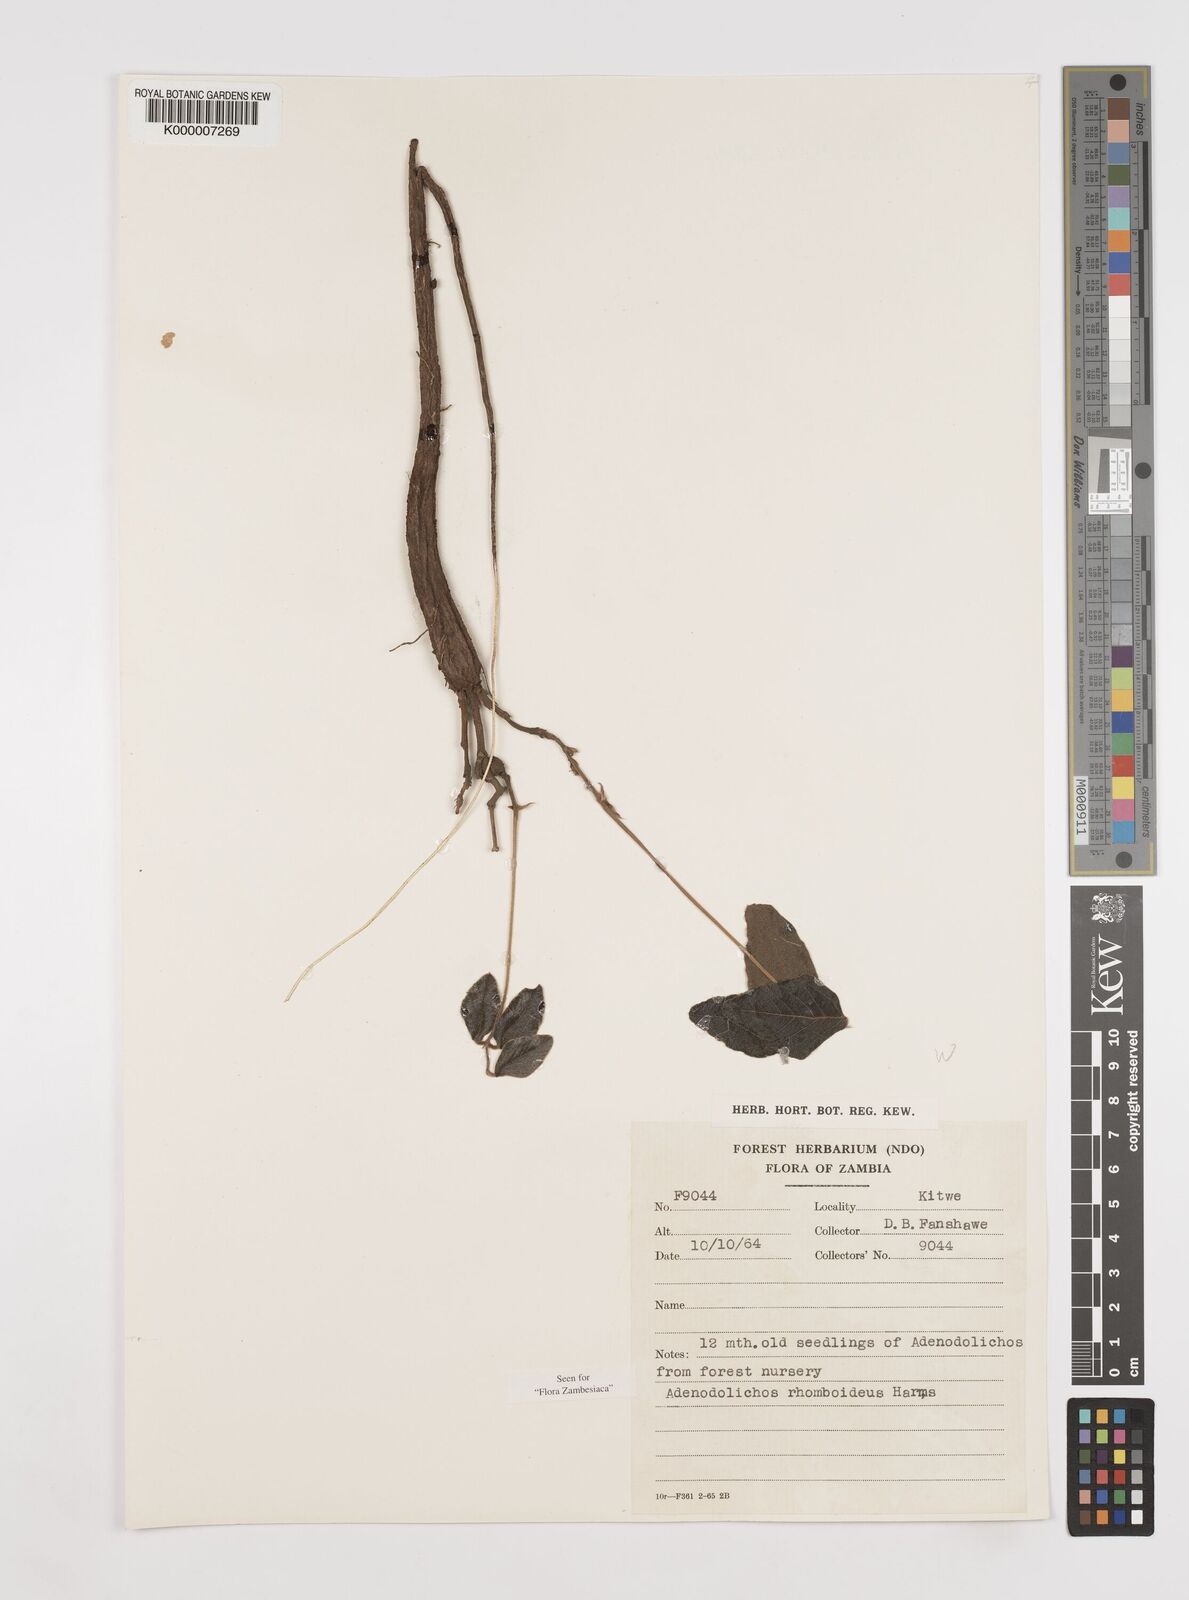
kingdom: Plantae
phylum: Tracheophyta
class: Magnoliopsida
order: Fabales
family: Fabaceae
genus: Adenodolichos
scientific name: Adenodolichos rhomboideus
